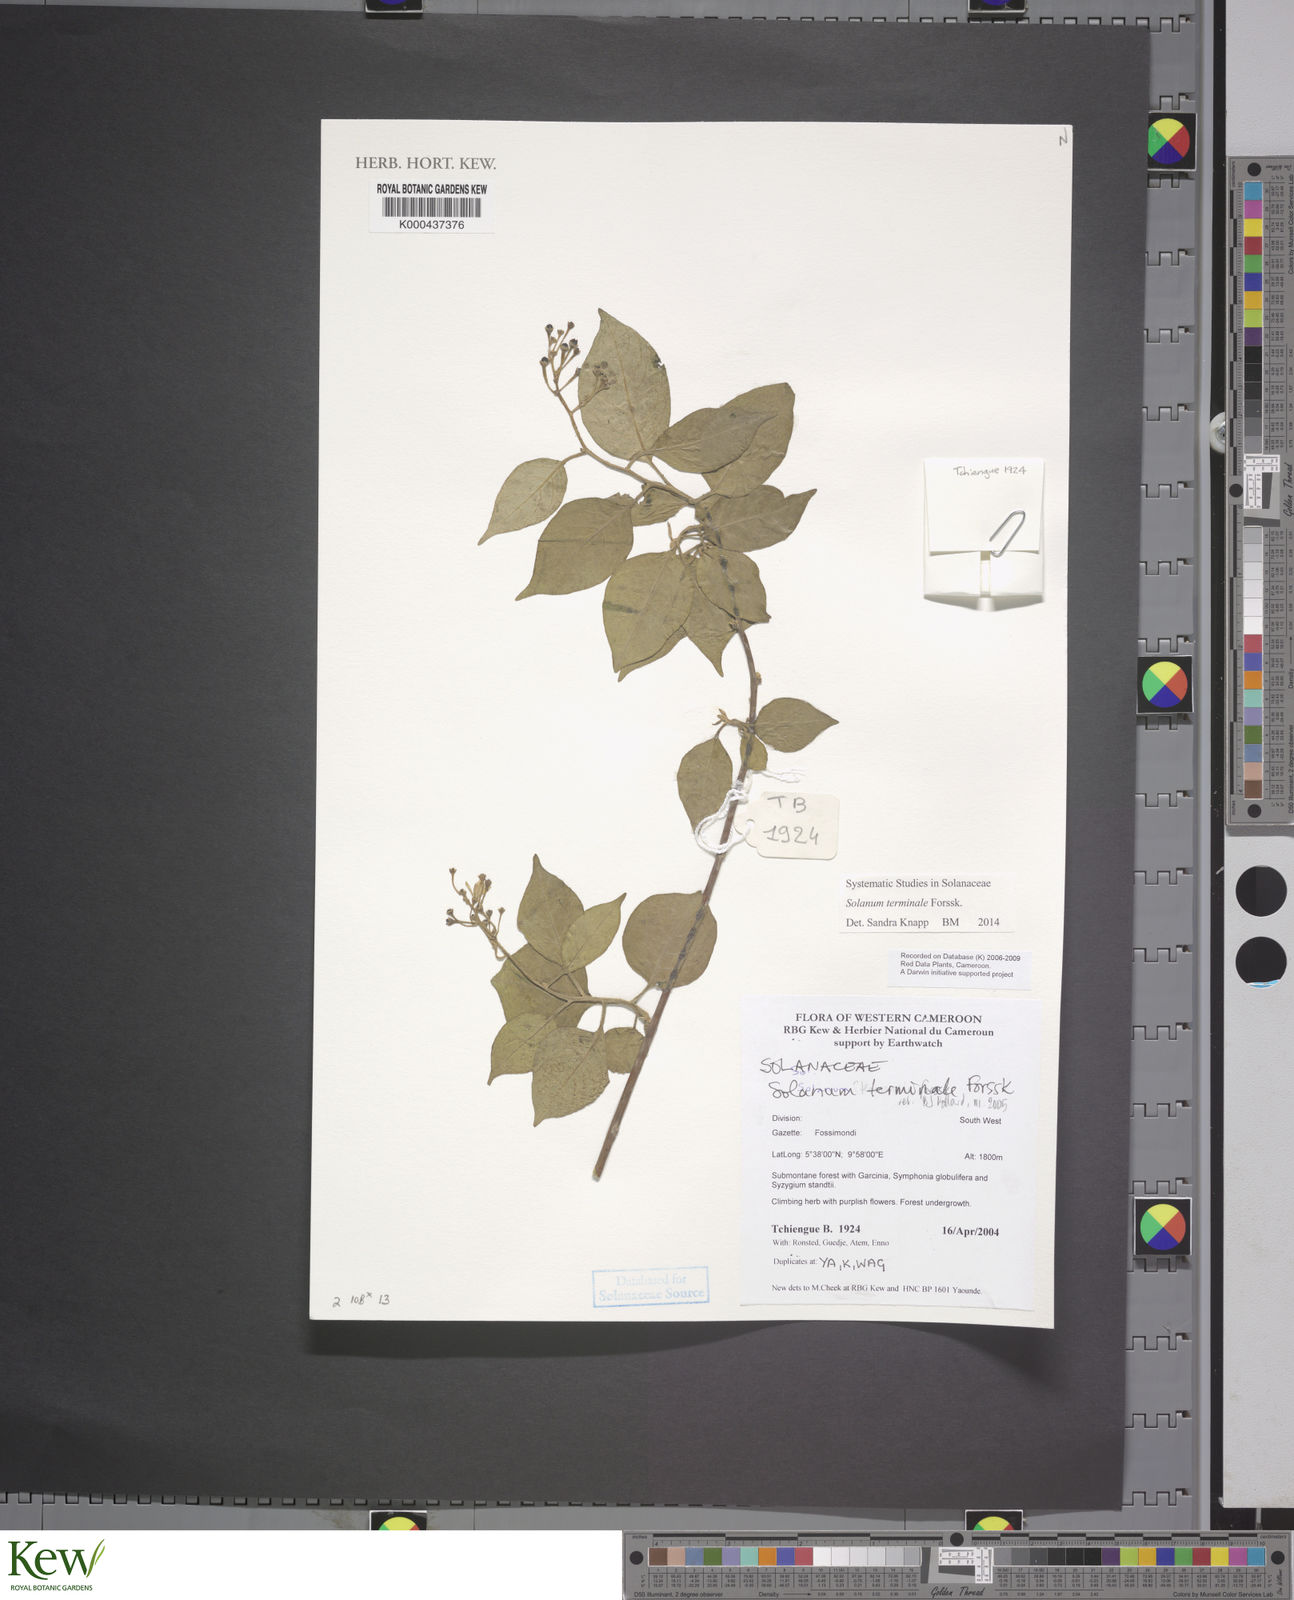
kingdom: Plantae
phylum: Tracheophyta
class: Magnoliopsida
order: Solanales
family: Solanaceae
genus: Solanum
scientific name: Solanum terminale
